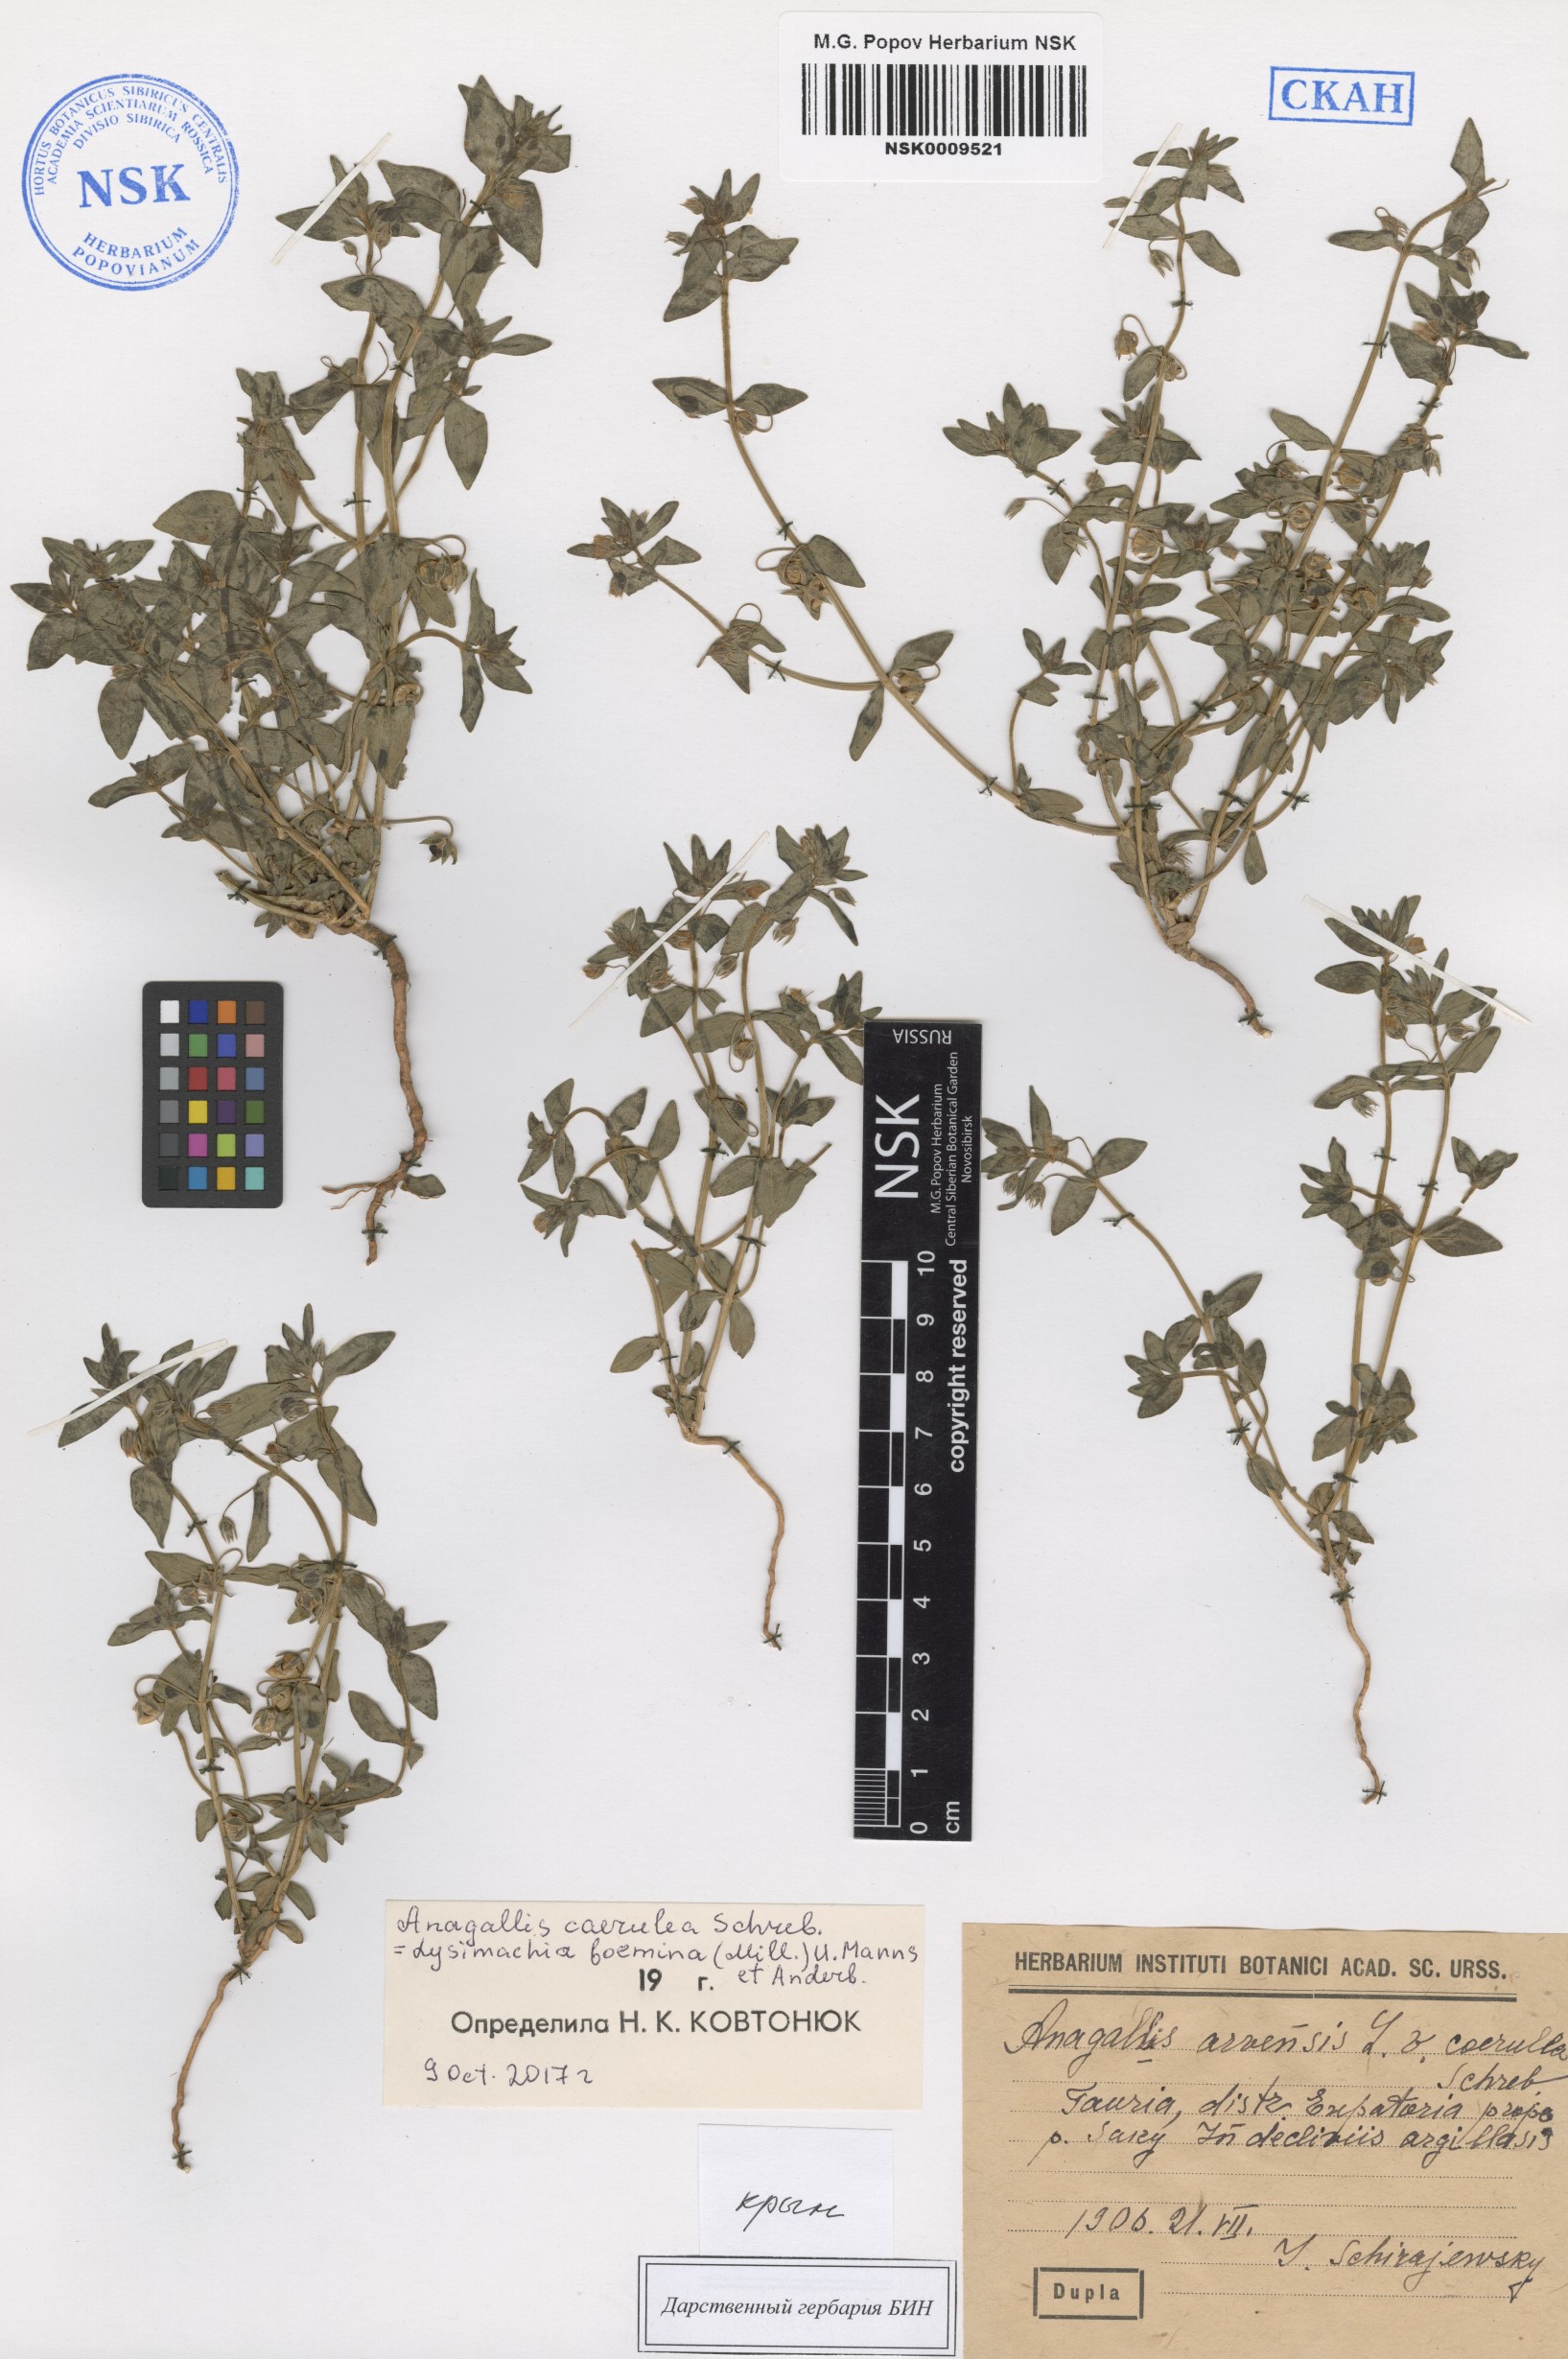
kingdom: Plantae
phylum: Tracheophyta
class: Magnoliopsida
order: Ericales
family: Primulaceae
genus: Lysimachia
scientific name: Lysimachia loeflingii
